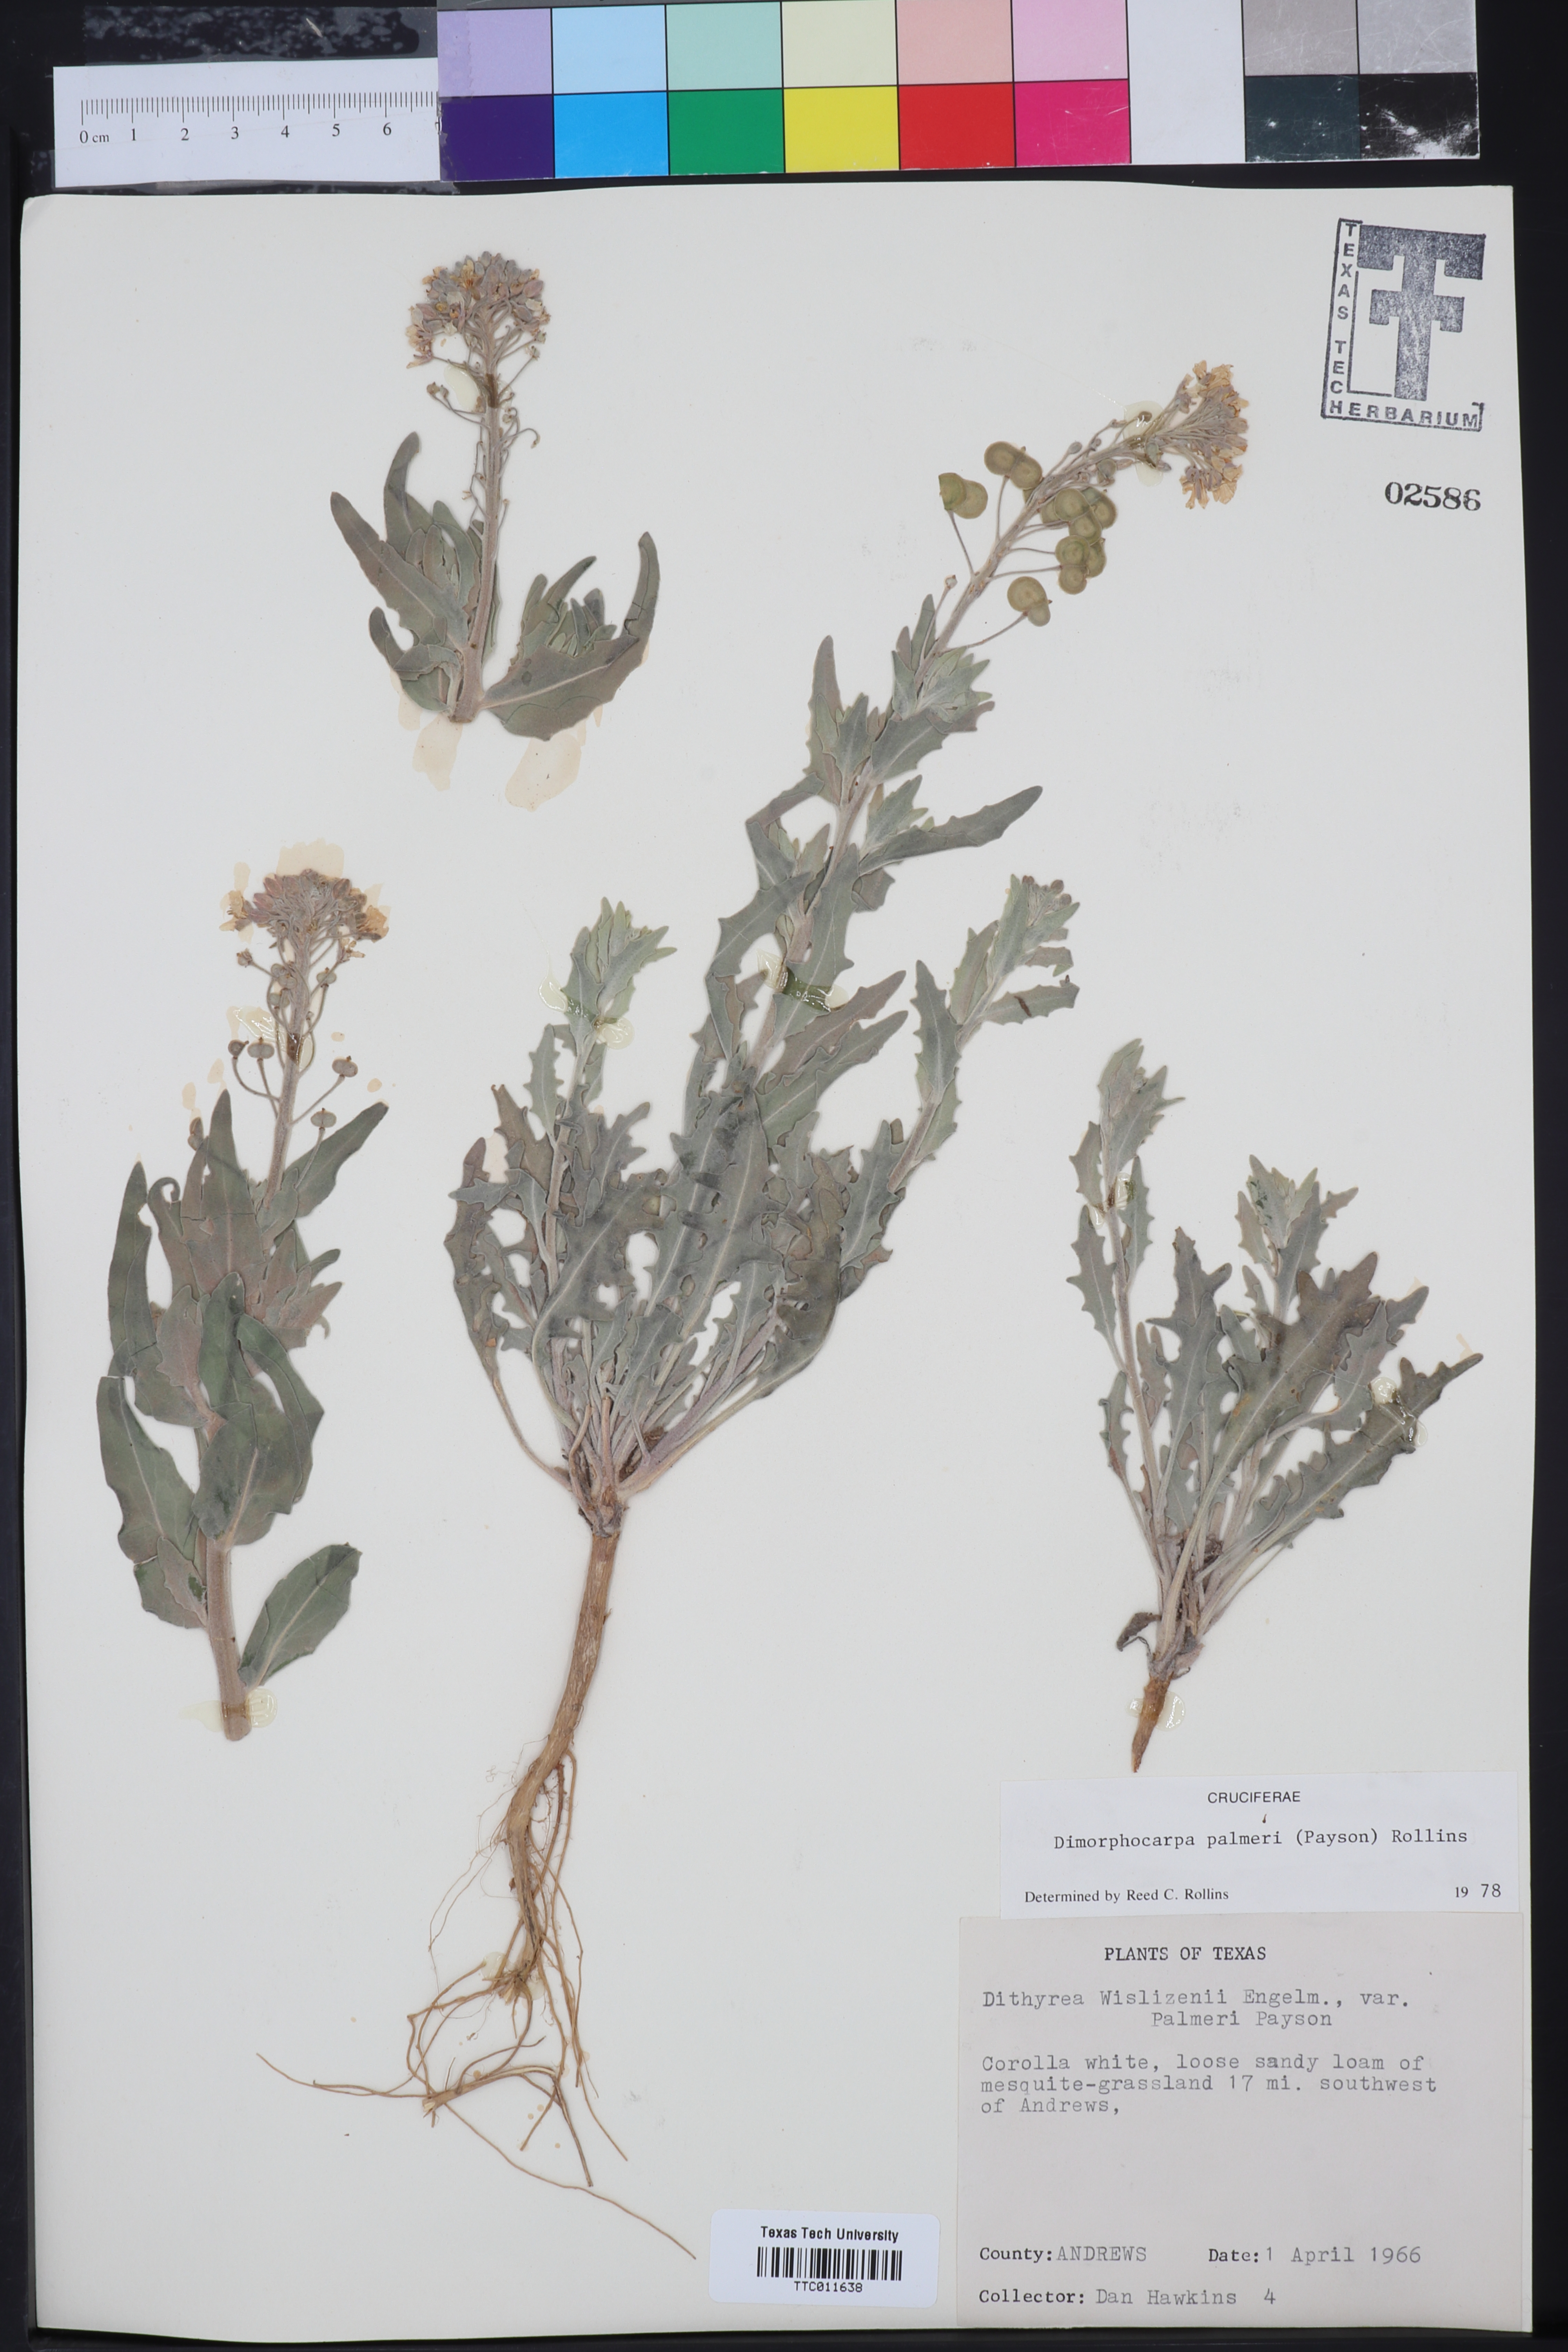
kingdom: Plantae
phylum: Tracheophyta
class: Magnoliopsida
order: Brassicales
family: Brassicaceae
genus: Dimorphocarpa
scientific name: Dimorphocarpa candicans
